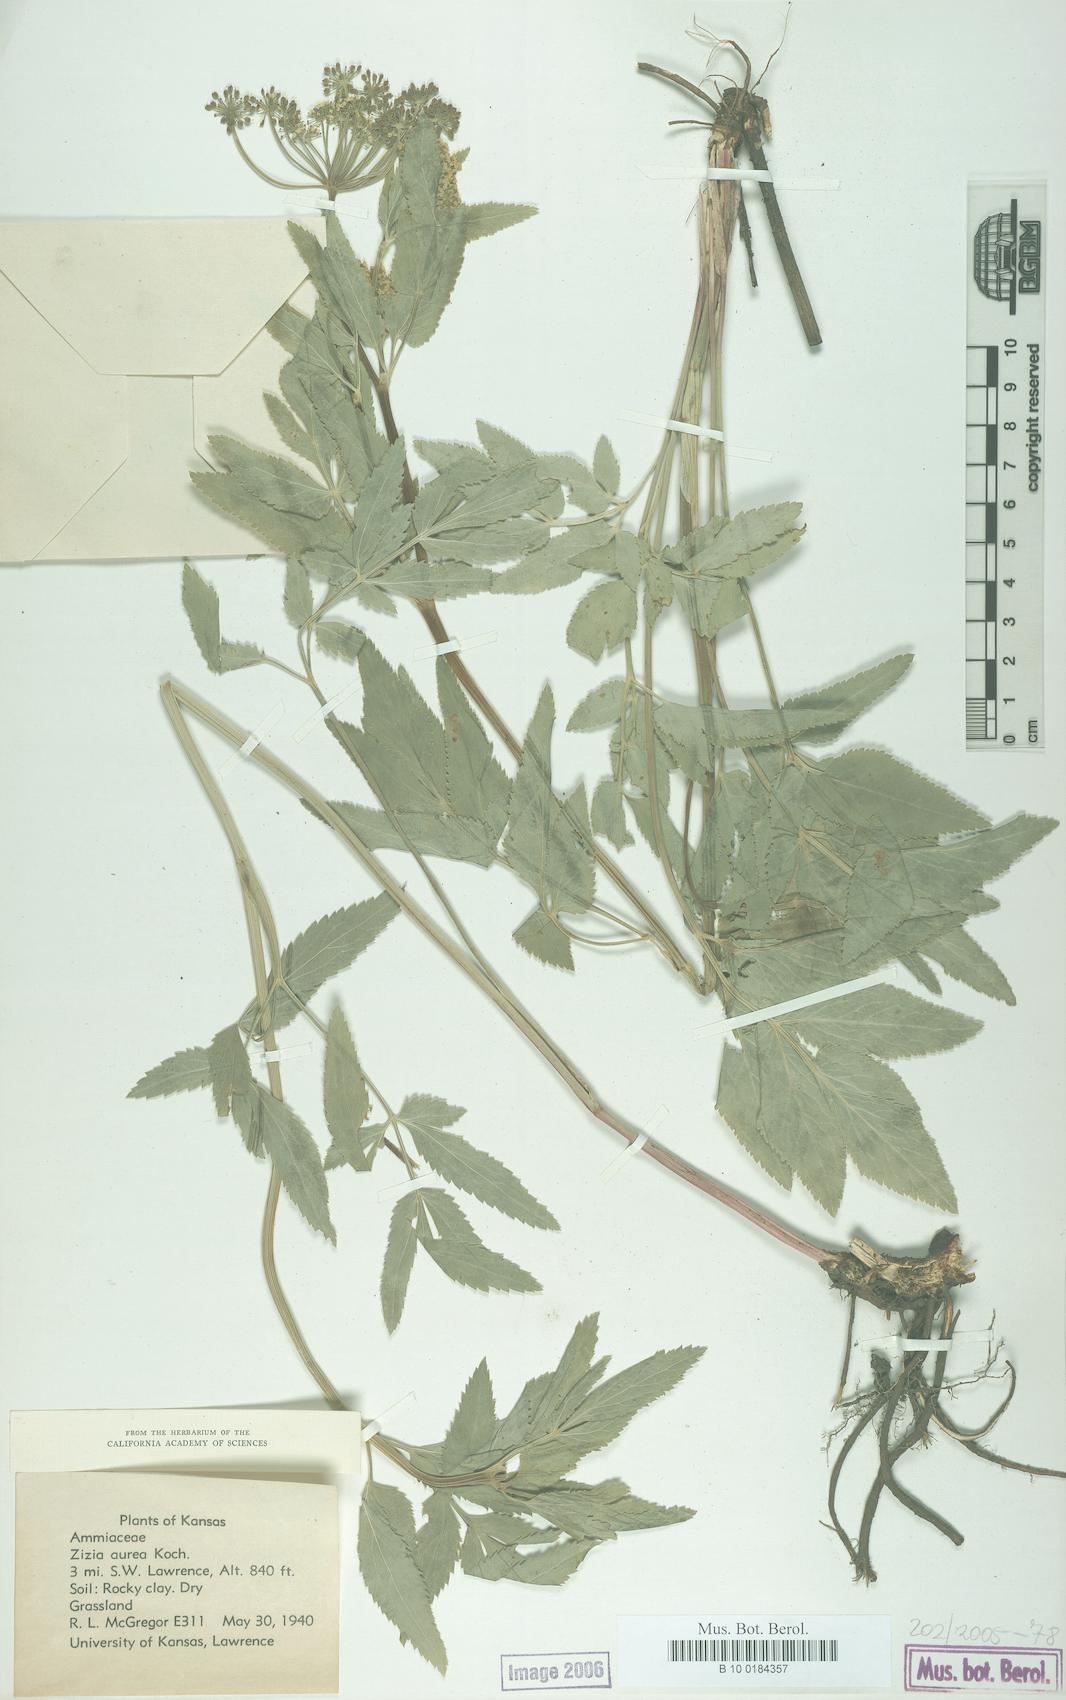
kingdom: Plantae
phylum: Tracheophyta
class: Magnoliopsida
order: Apiales
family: Apiaceae
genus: Zizia
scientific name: Zizia aurea
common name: Golden alexanders
